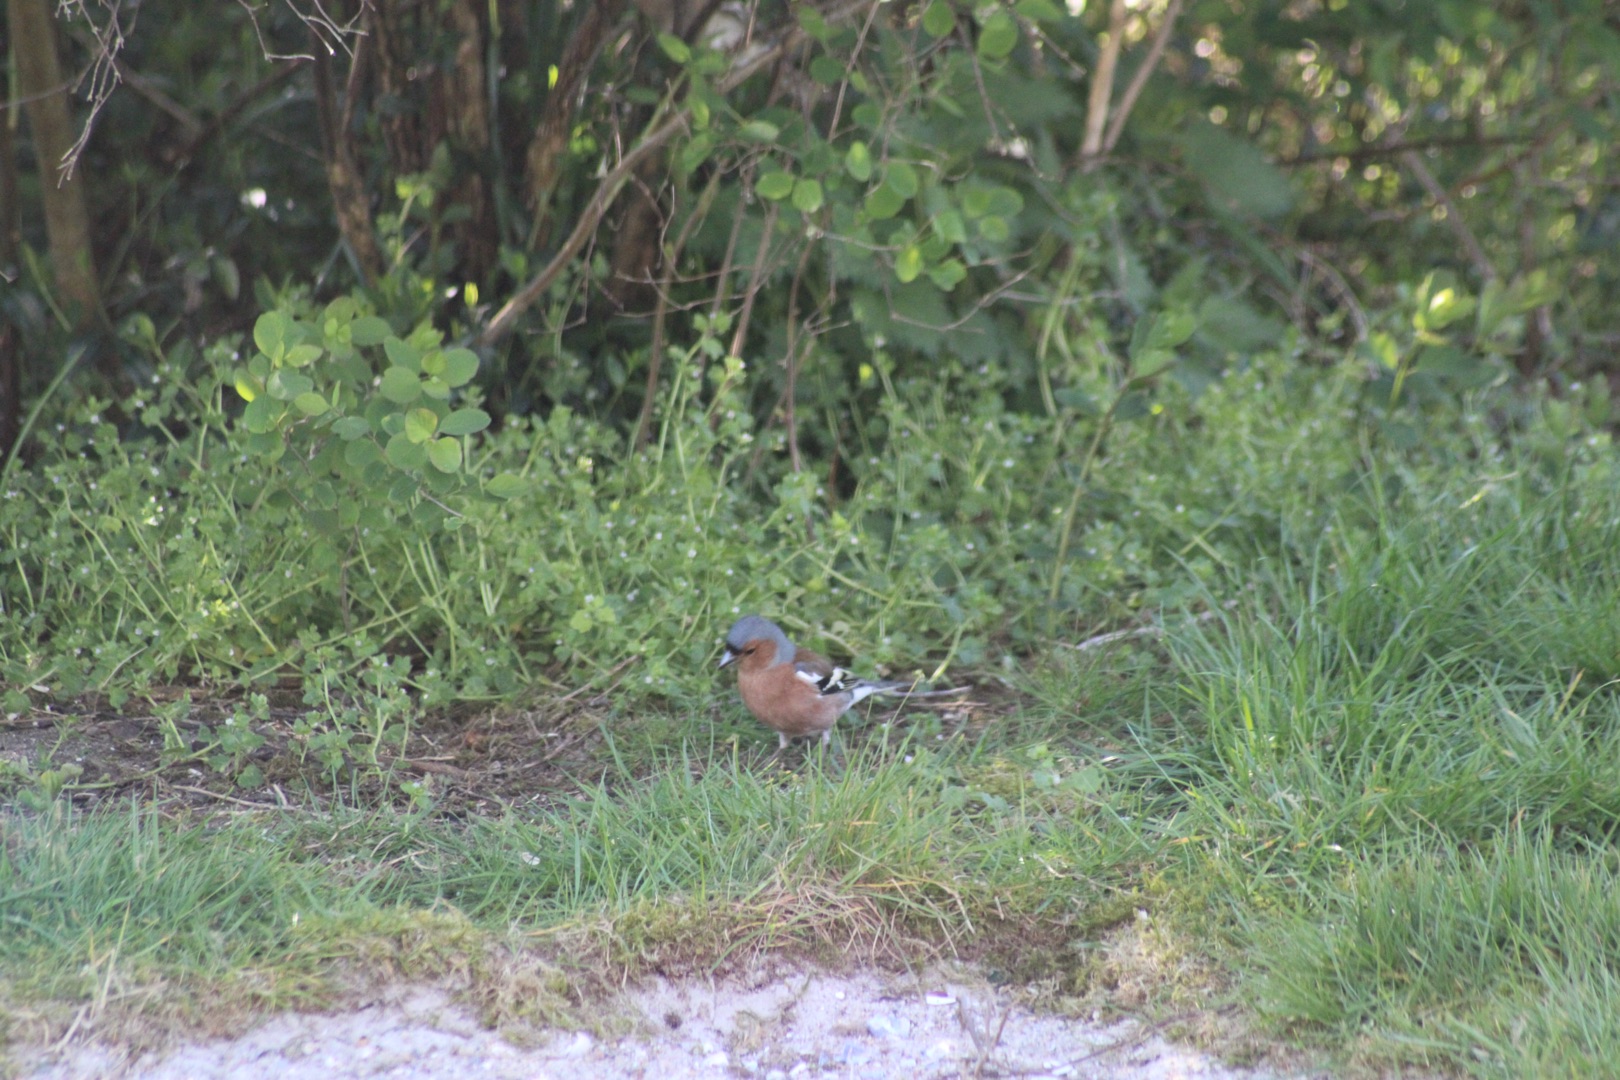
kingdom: Animalia
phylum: Chordata
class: Aves
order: Passeriformes
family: Fringillidae
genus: Fringilla
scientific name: Fringilla coelebs
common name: Bogfinke
